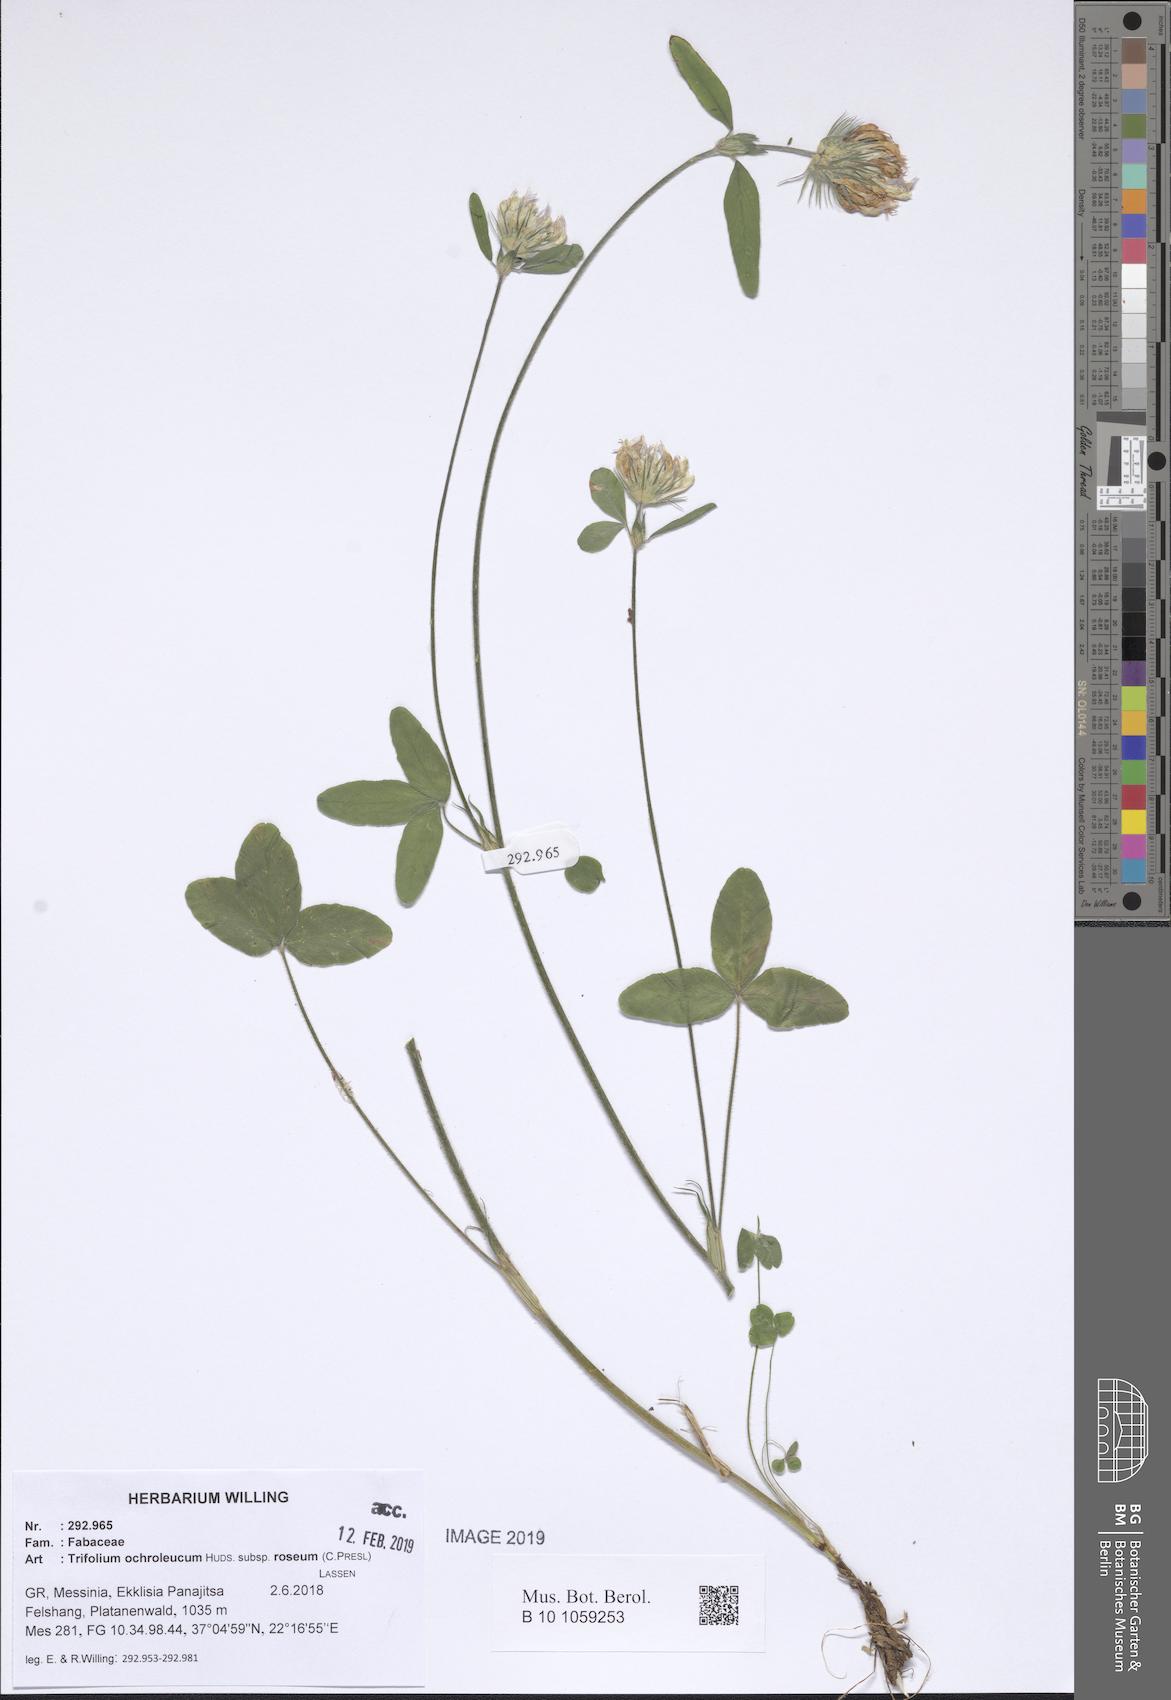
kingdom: Plantae
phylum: Tracheophyta
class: Magnoliopsida
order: Fabales
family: Fabaceae
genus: Trifolium
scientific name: Trifolium ochroleucon
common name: Sulphur clover
